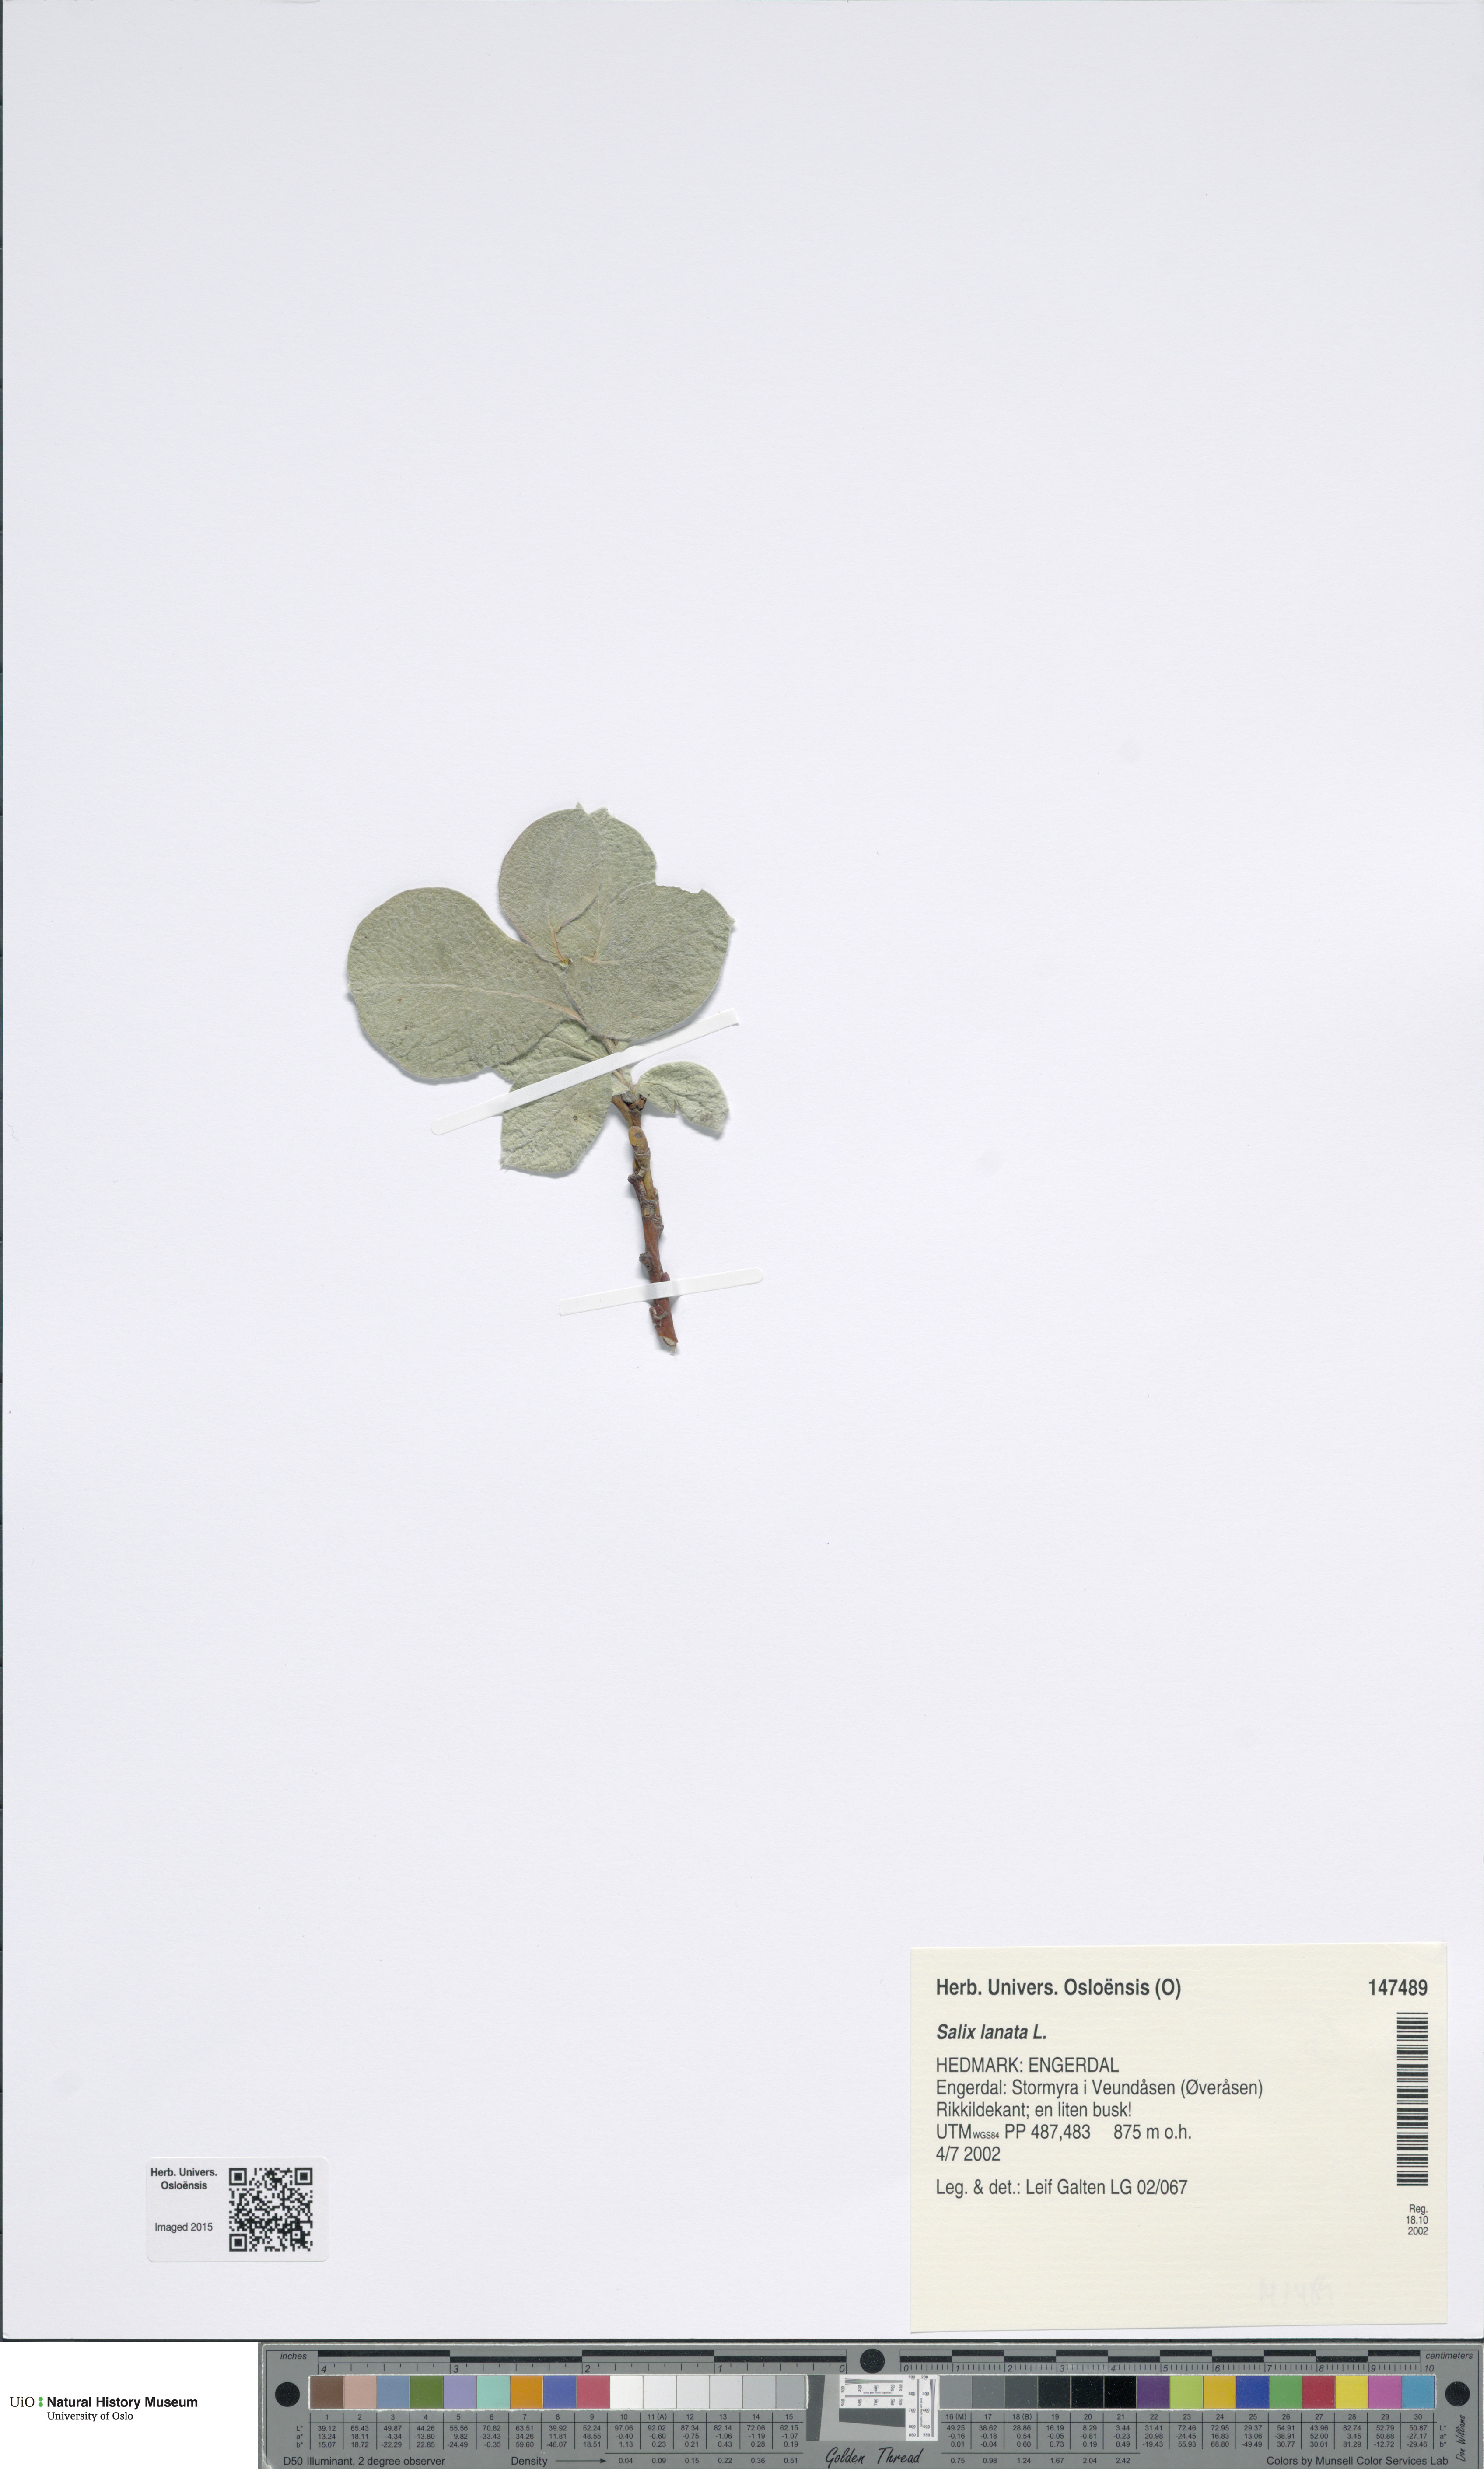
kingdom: Plantae
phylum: Tracheophyta
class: Magnoliopsida
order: Malpighiales
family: Salicaceae
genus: Salix
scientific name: Salix lanata
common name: Woolly willow
